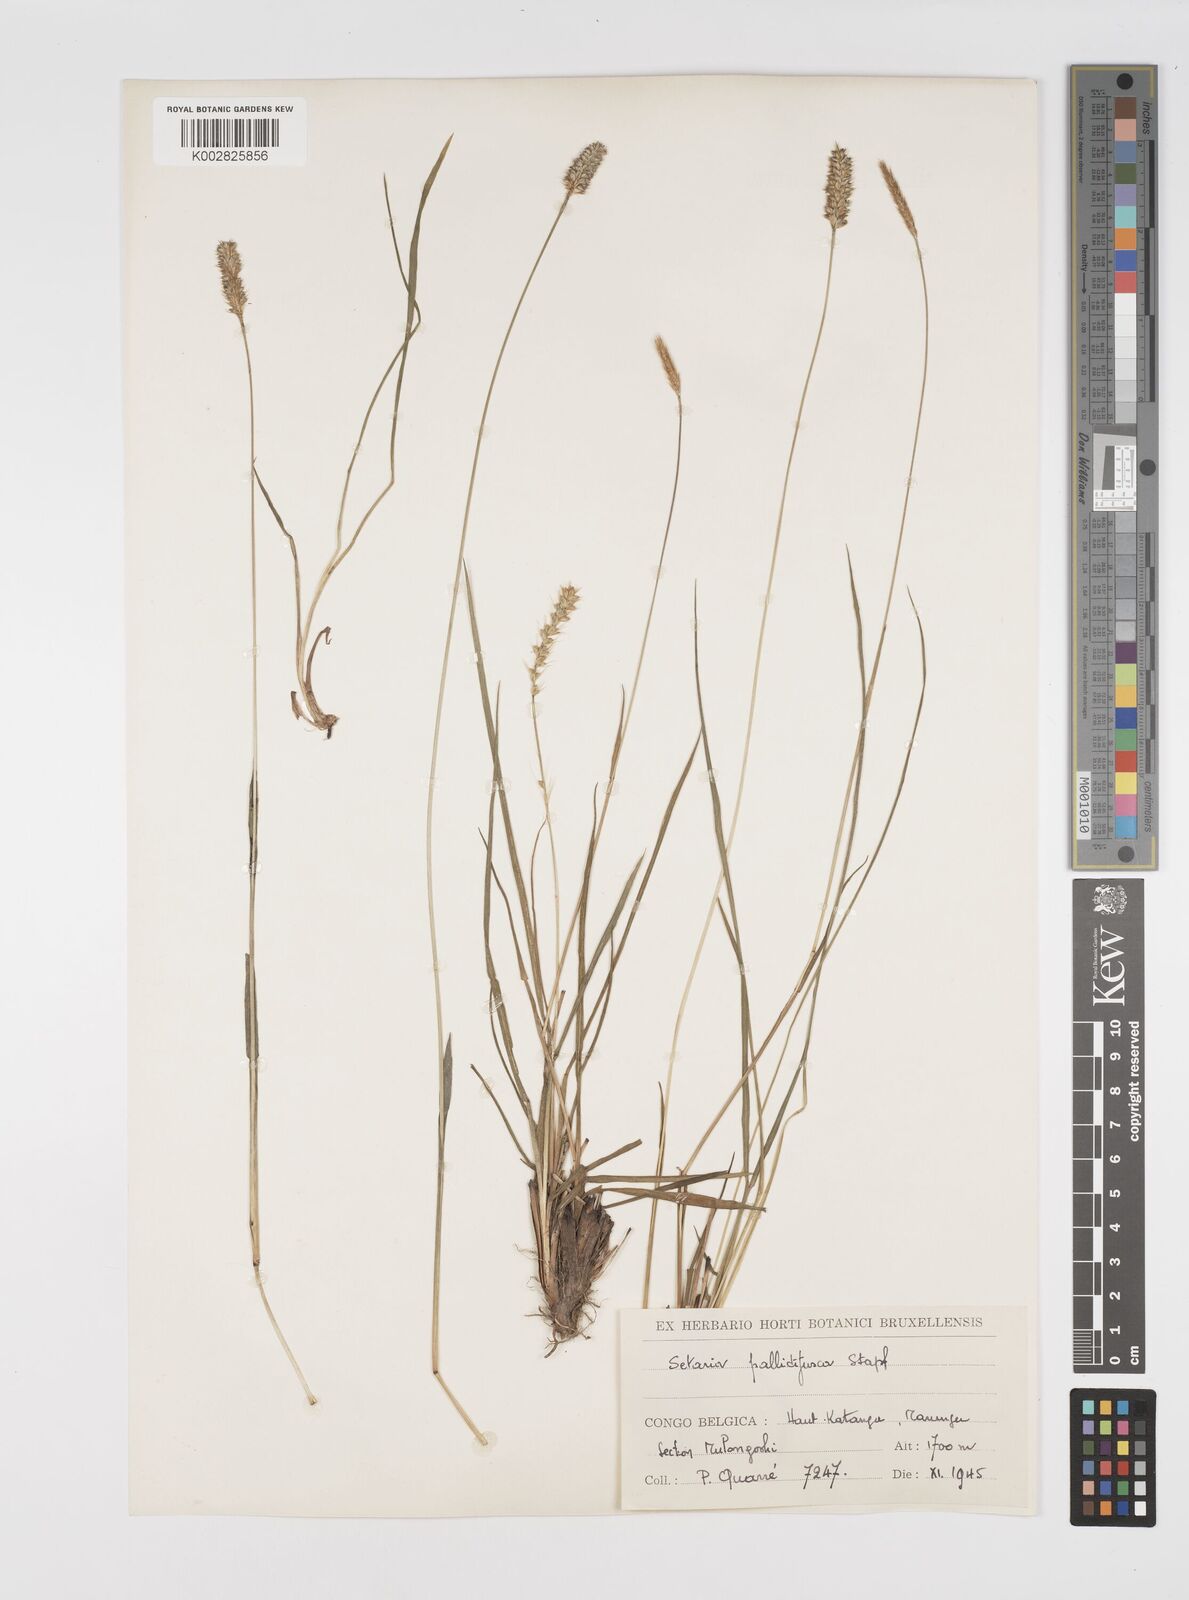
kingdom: Plantae
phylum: Tracheophyta
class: Liliopsida
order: Poales
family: Poaceae
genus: Setaria
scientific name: Setaria sphacelata
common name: African bristlegrass
